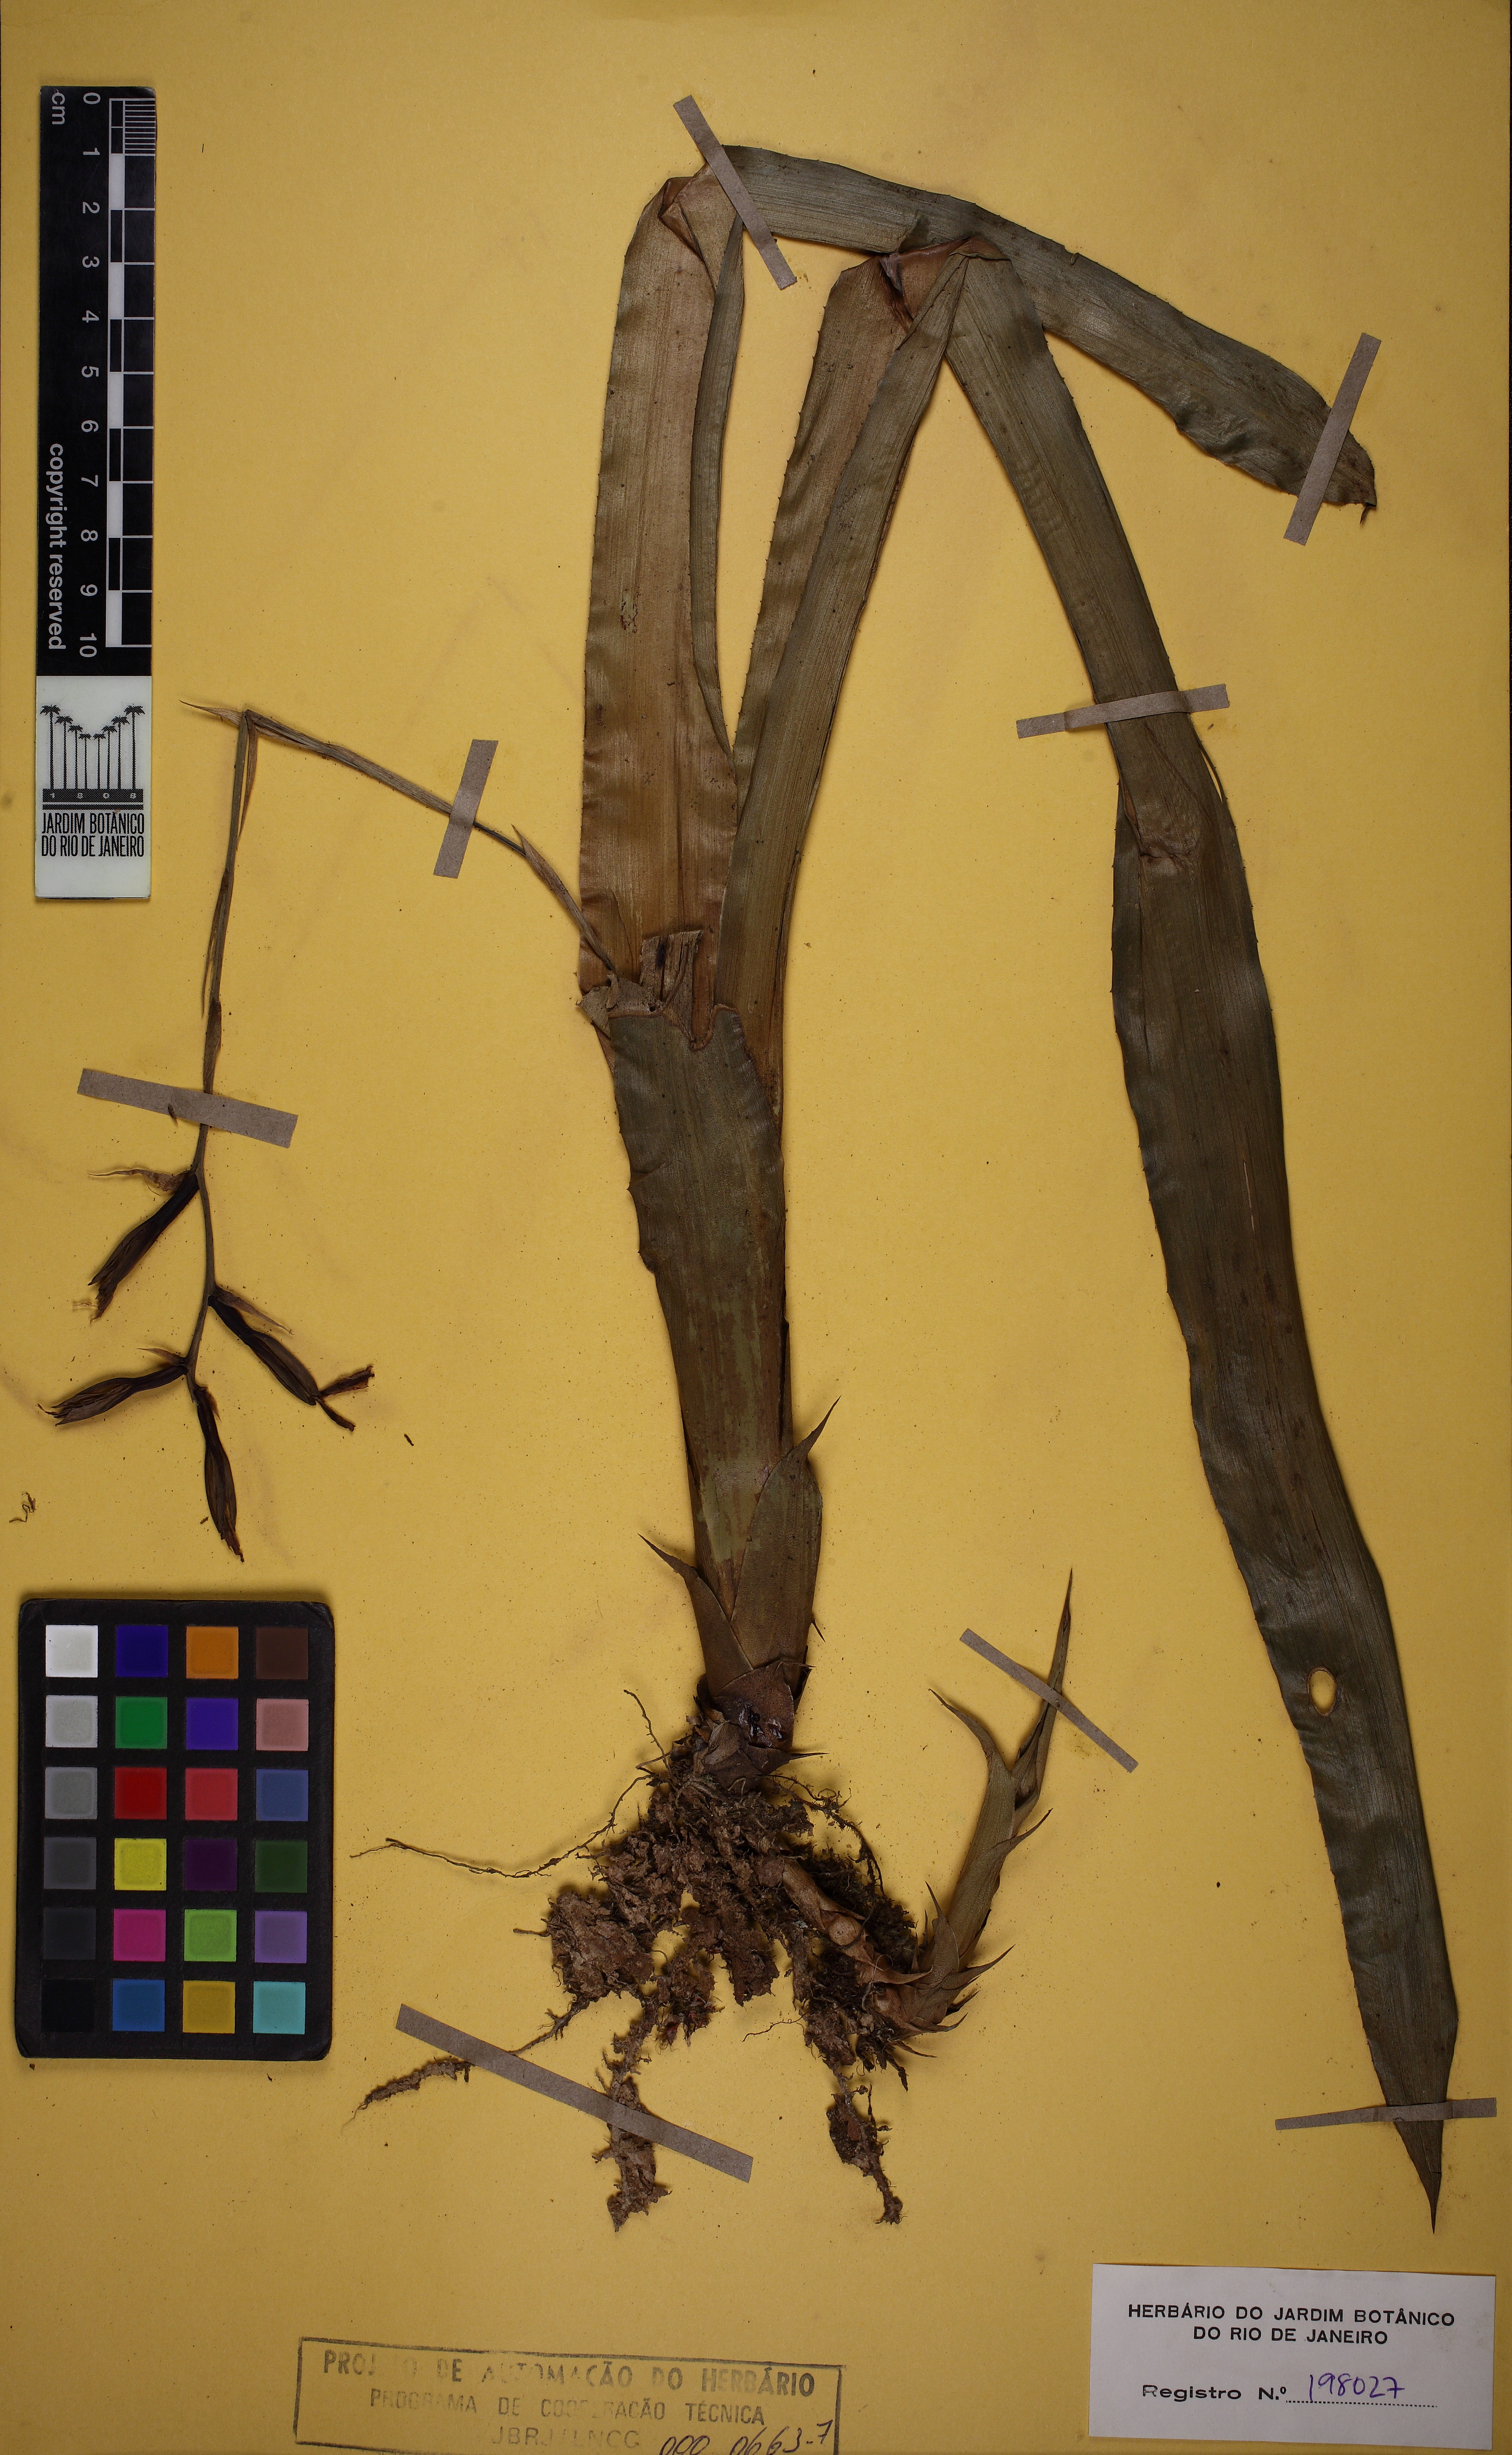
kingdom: Plantae
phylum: Tracheophyta
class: Liliopsida
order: Poales
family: Bromeliaceae
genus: Quesnelia
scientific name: Quesnelia liboniana
